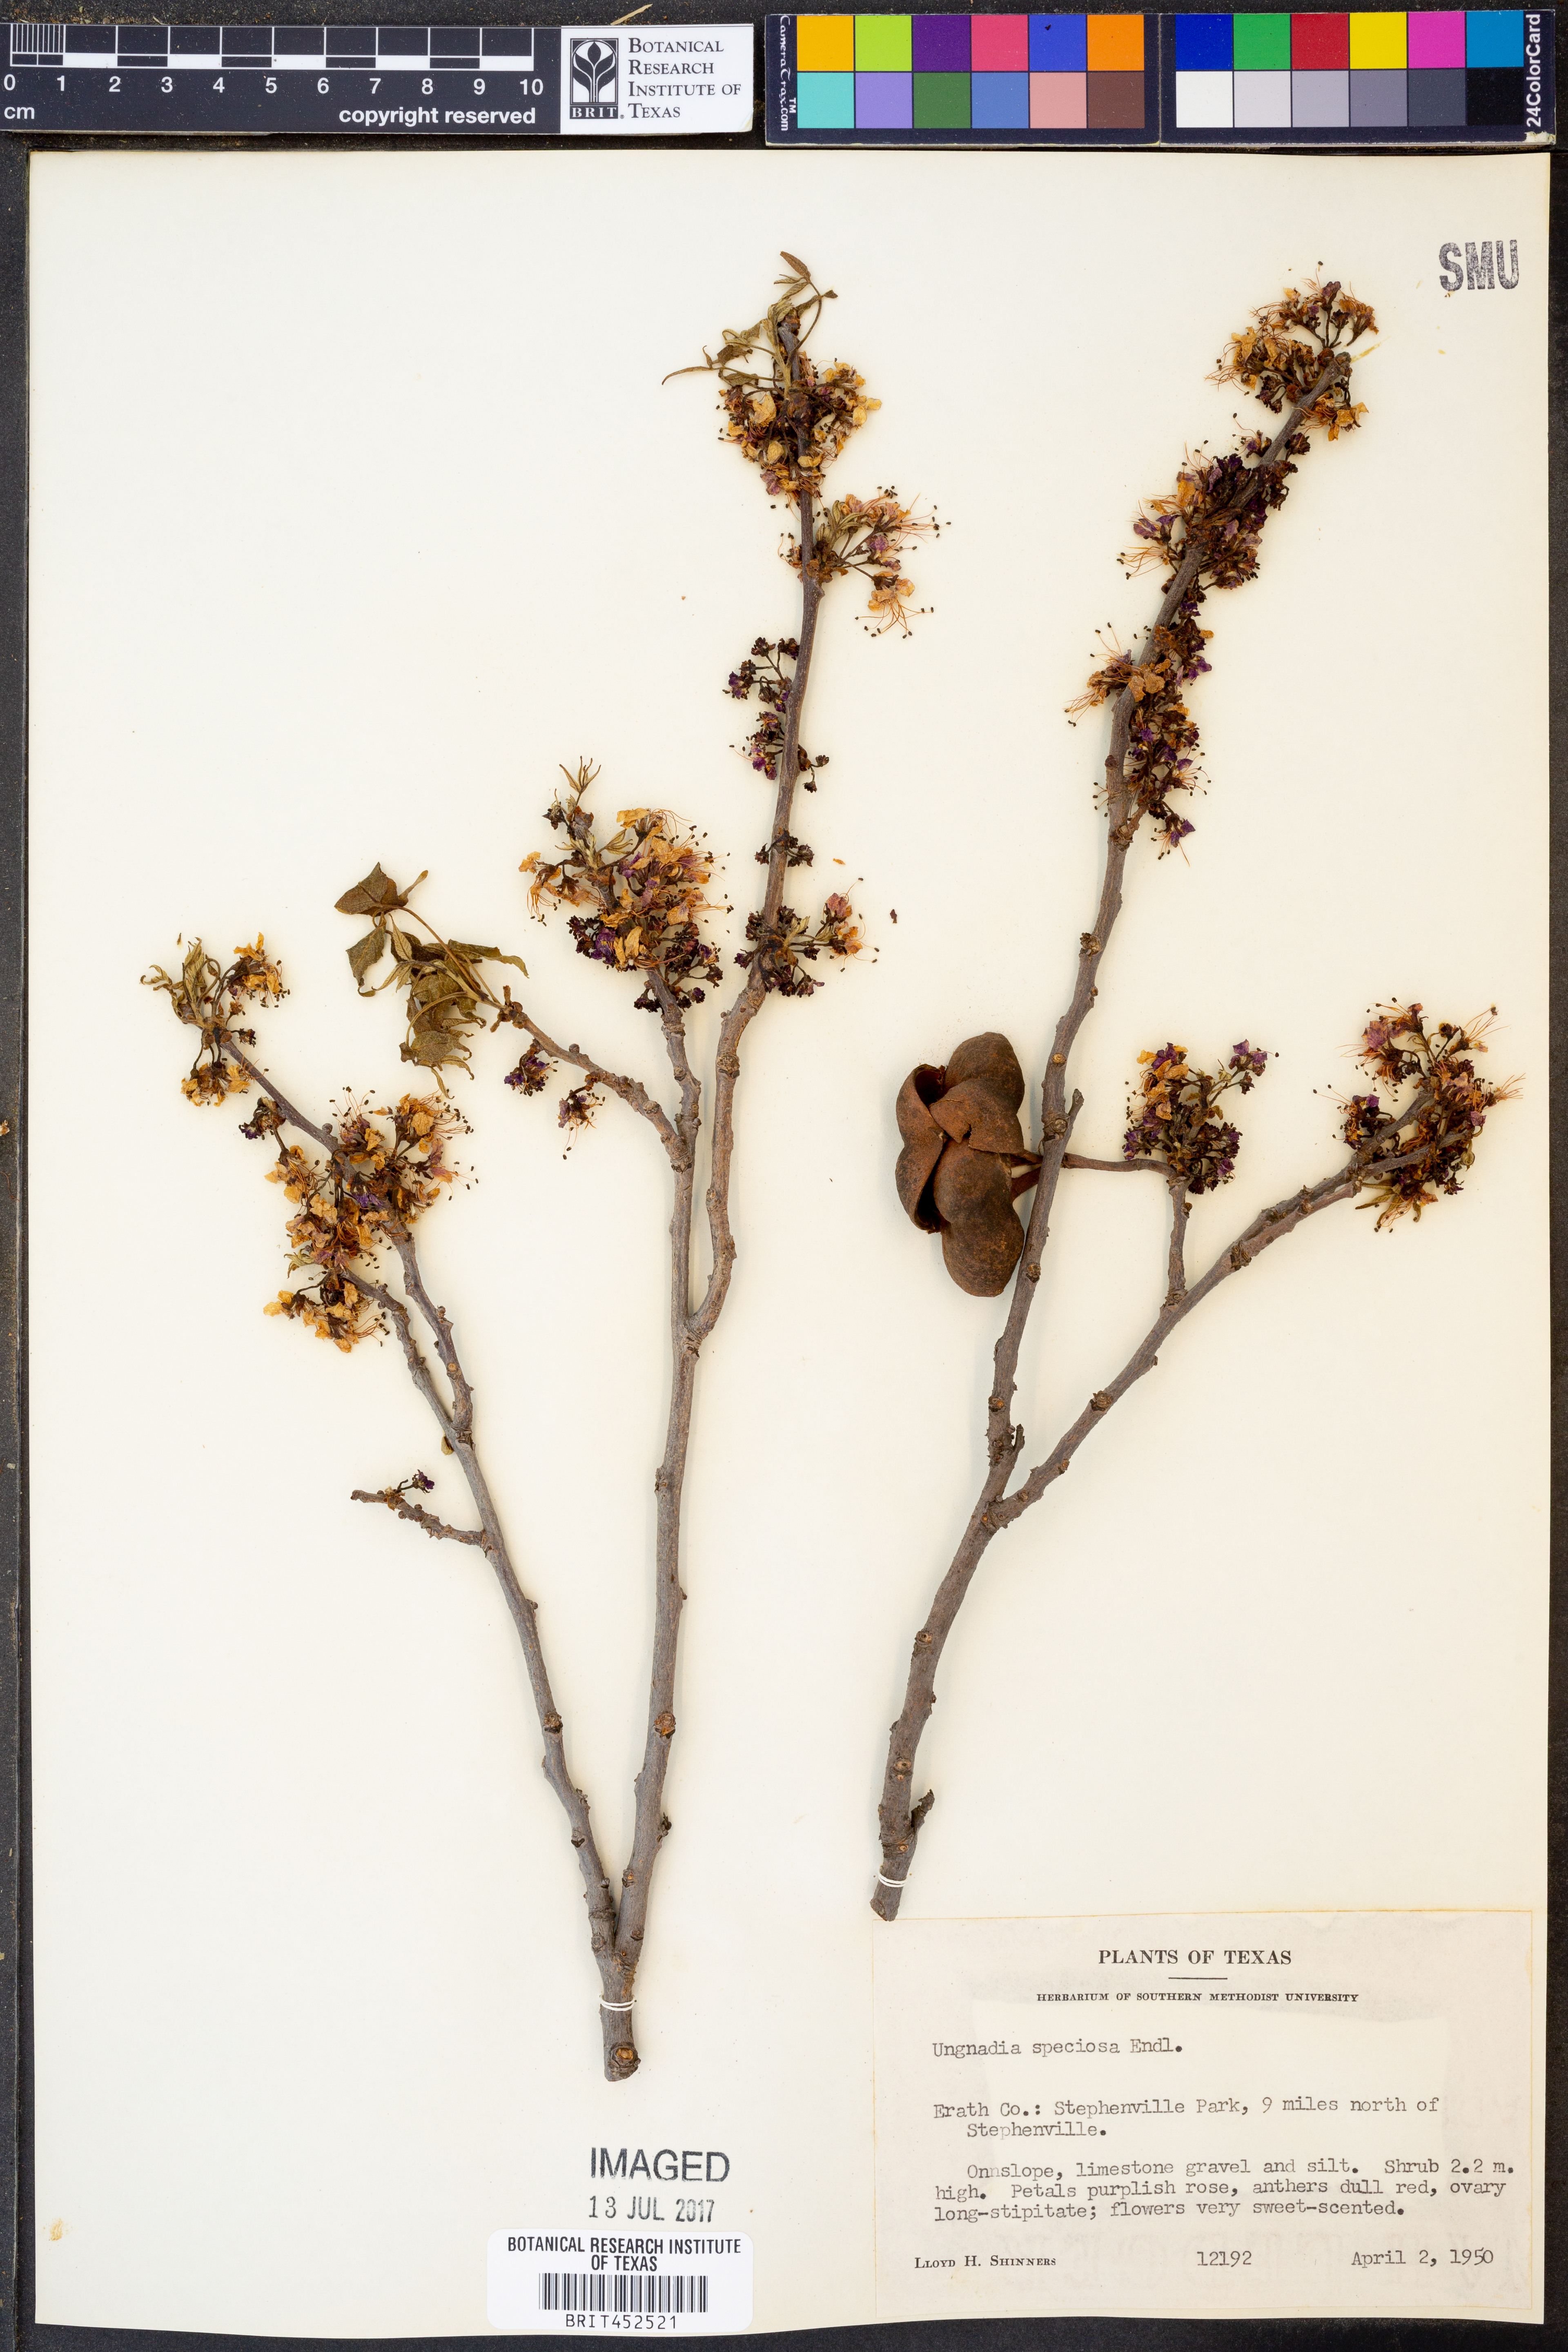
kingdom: Plantae
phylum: Tracheophyta
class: Magnoliopsida
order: Sapindales
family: Sapindaceae
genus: Ungnadia
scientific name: Ungnadia speciosa
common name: Texas-buckeye
